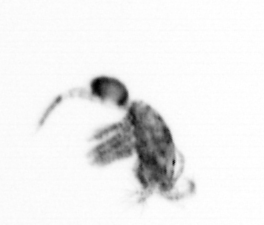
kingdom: Animalia
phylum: Arthropoda
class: Copepoda
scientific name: Copepoda
